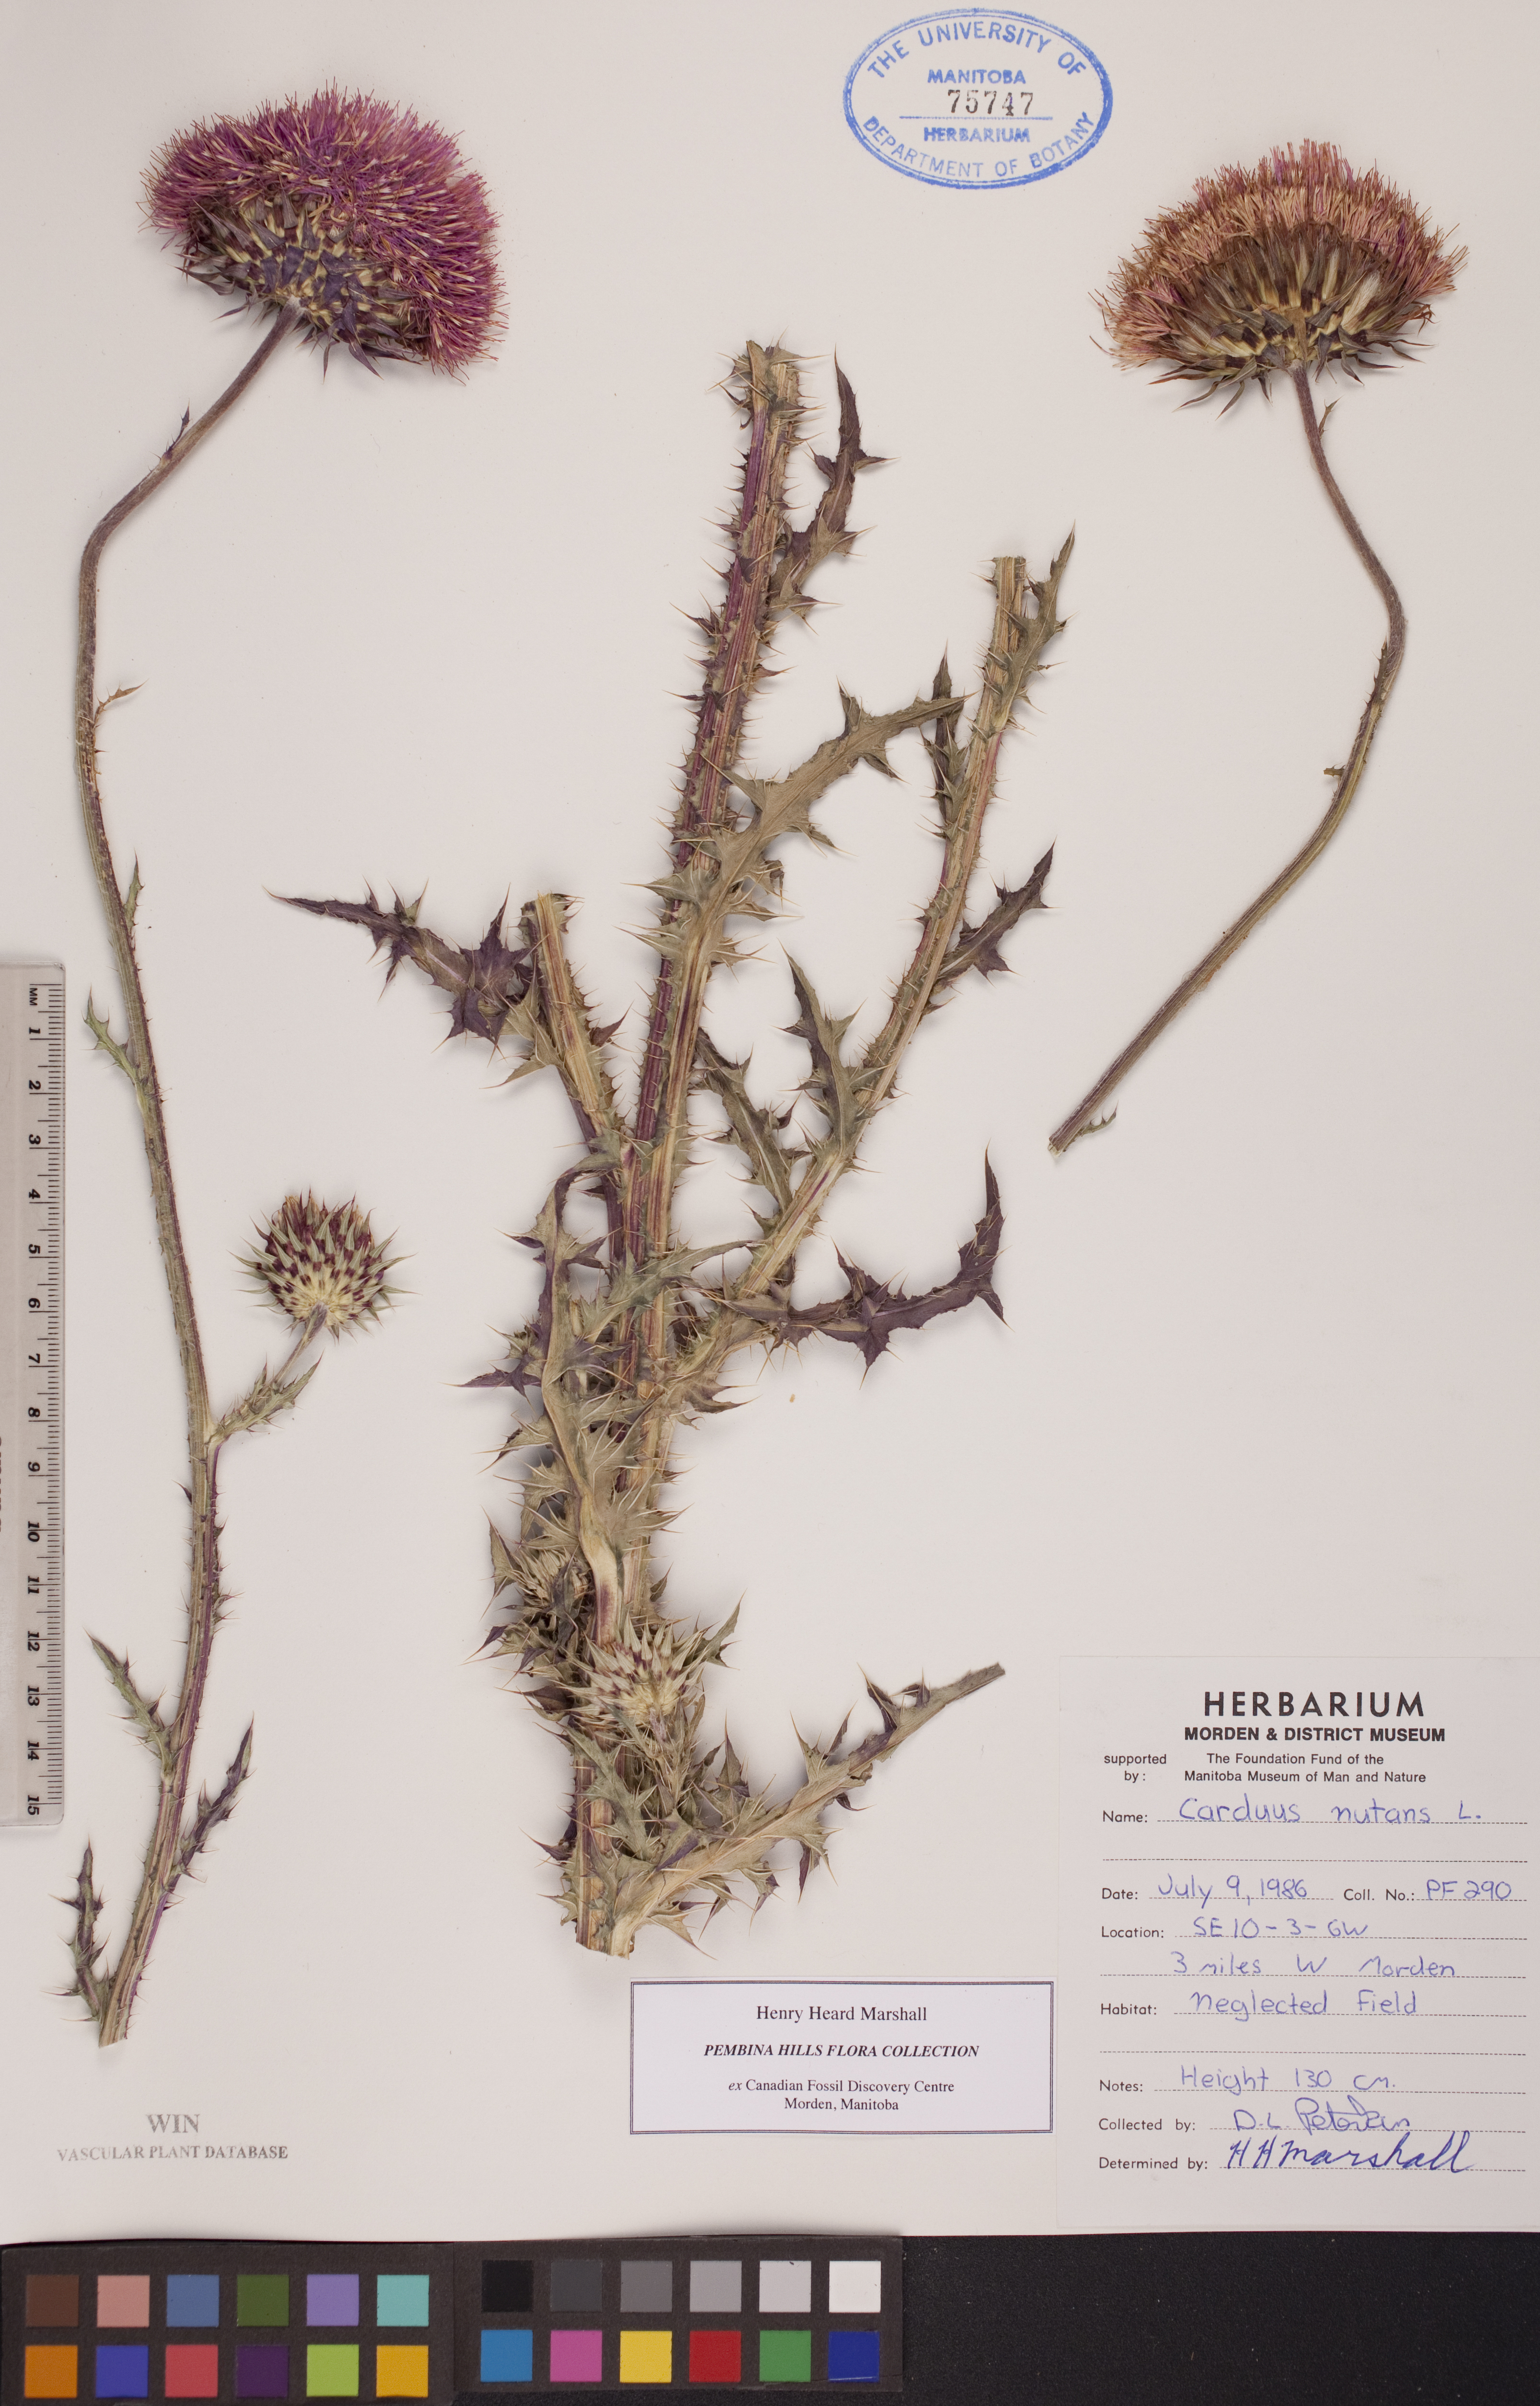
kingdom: Plantae
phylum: Tracheophyta
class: Magnoliopsida
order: Asterales
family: Asteraceae
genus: Carduus
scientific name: Carduus nutans
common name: Musk thistle
